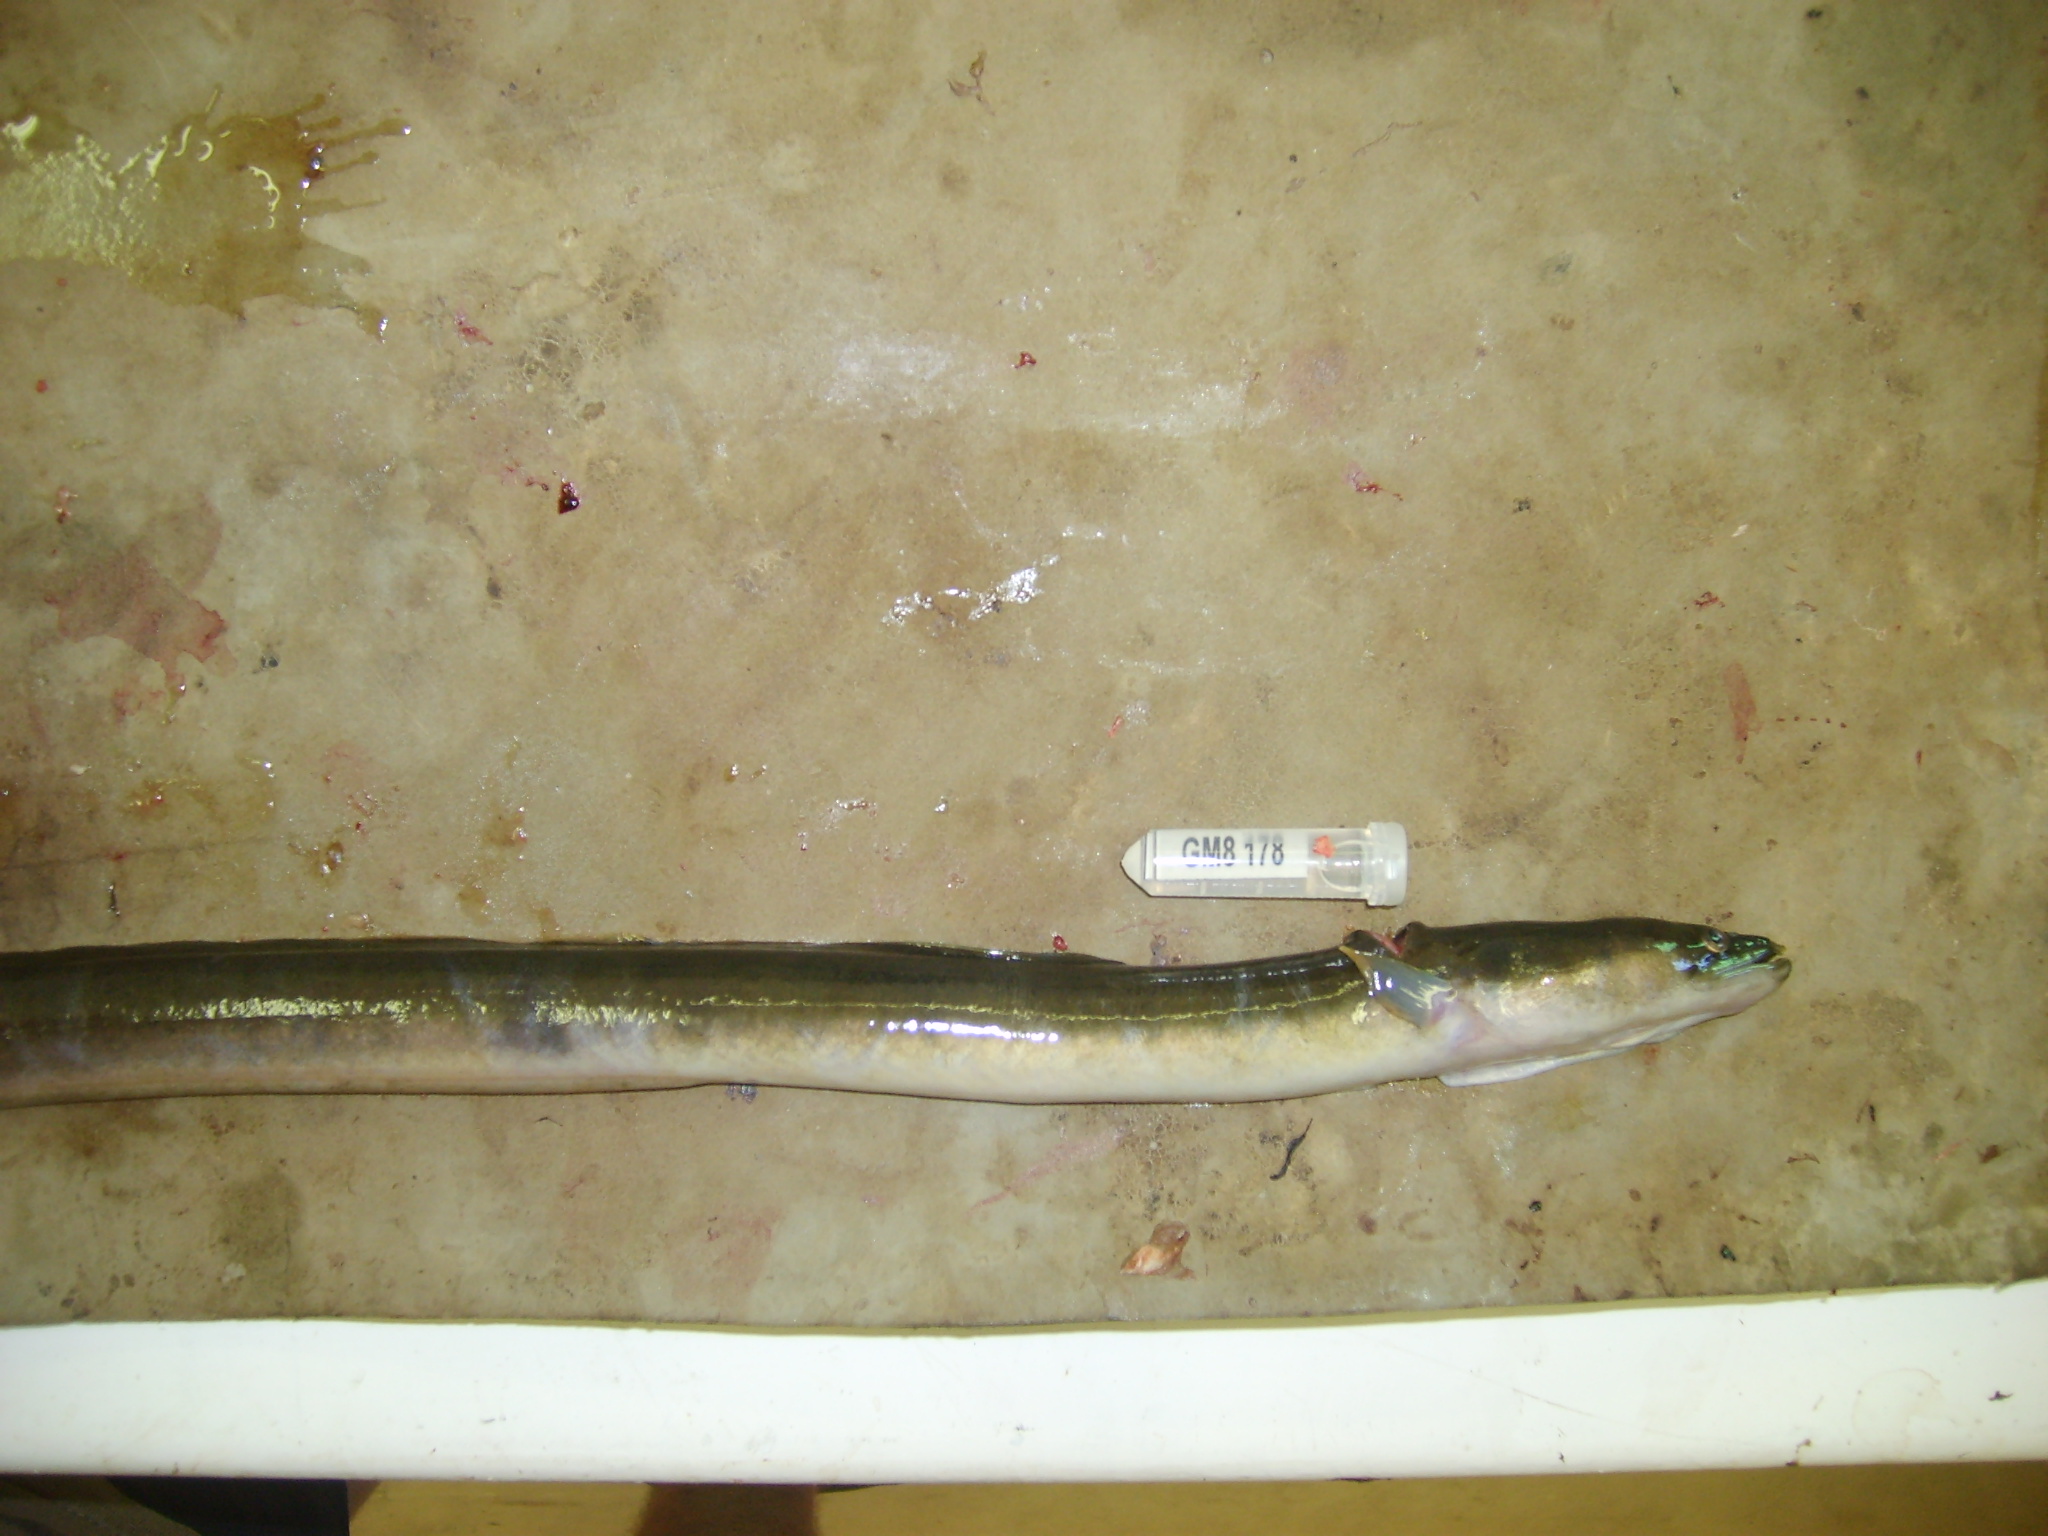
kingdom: Animalia
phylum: Chordata
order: Anguilliformes
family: Anguillidae
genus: Anguilla
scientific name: Anguilla mossambica
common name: African longfin eel
